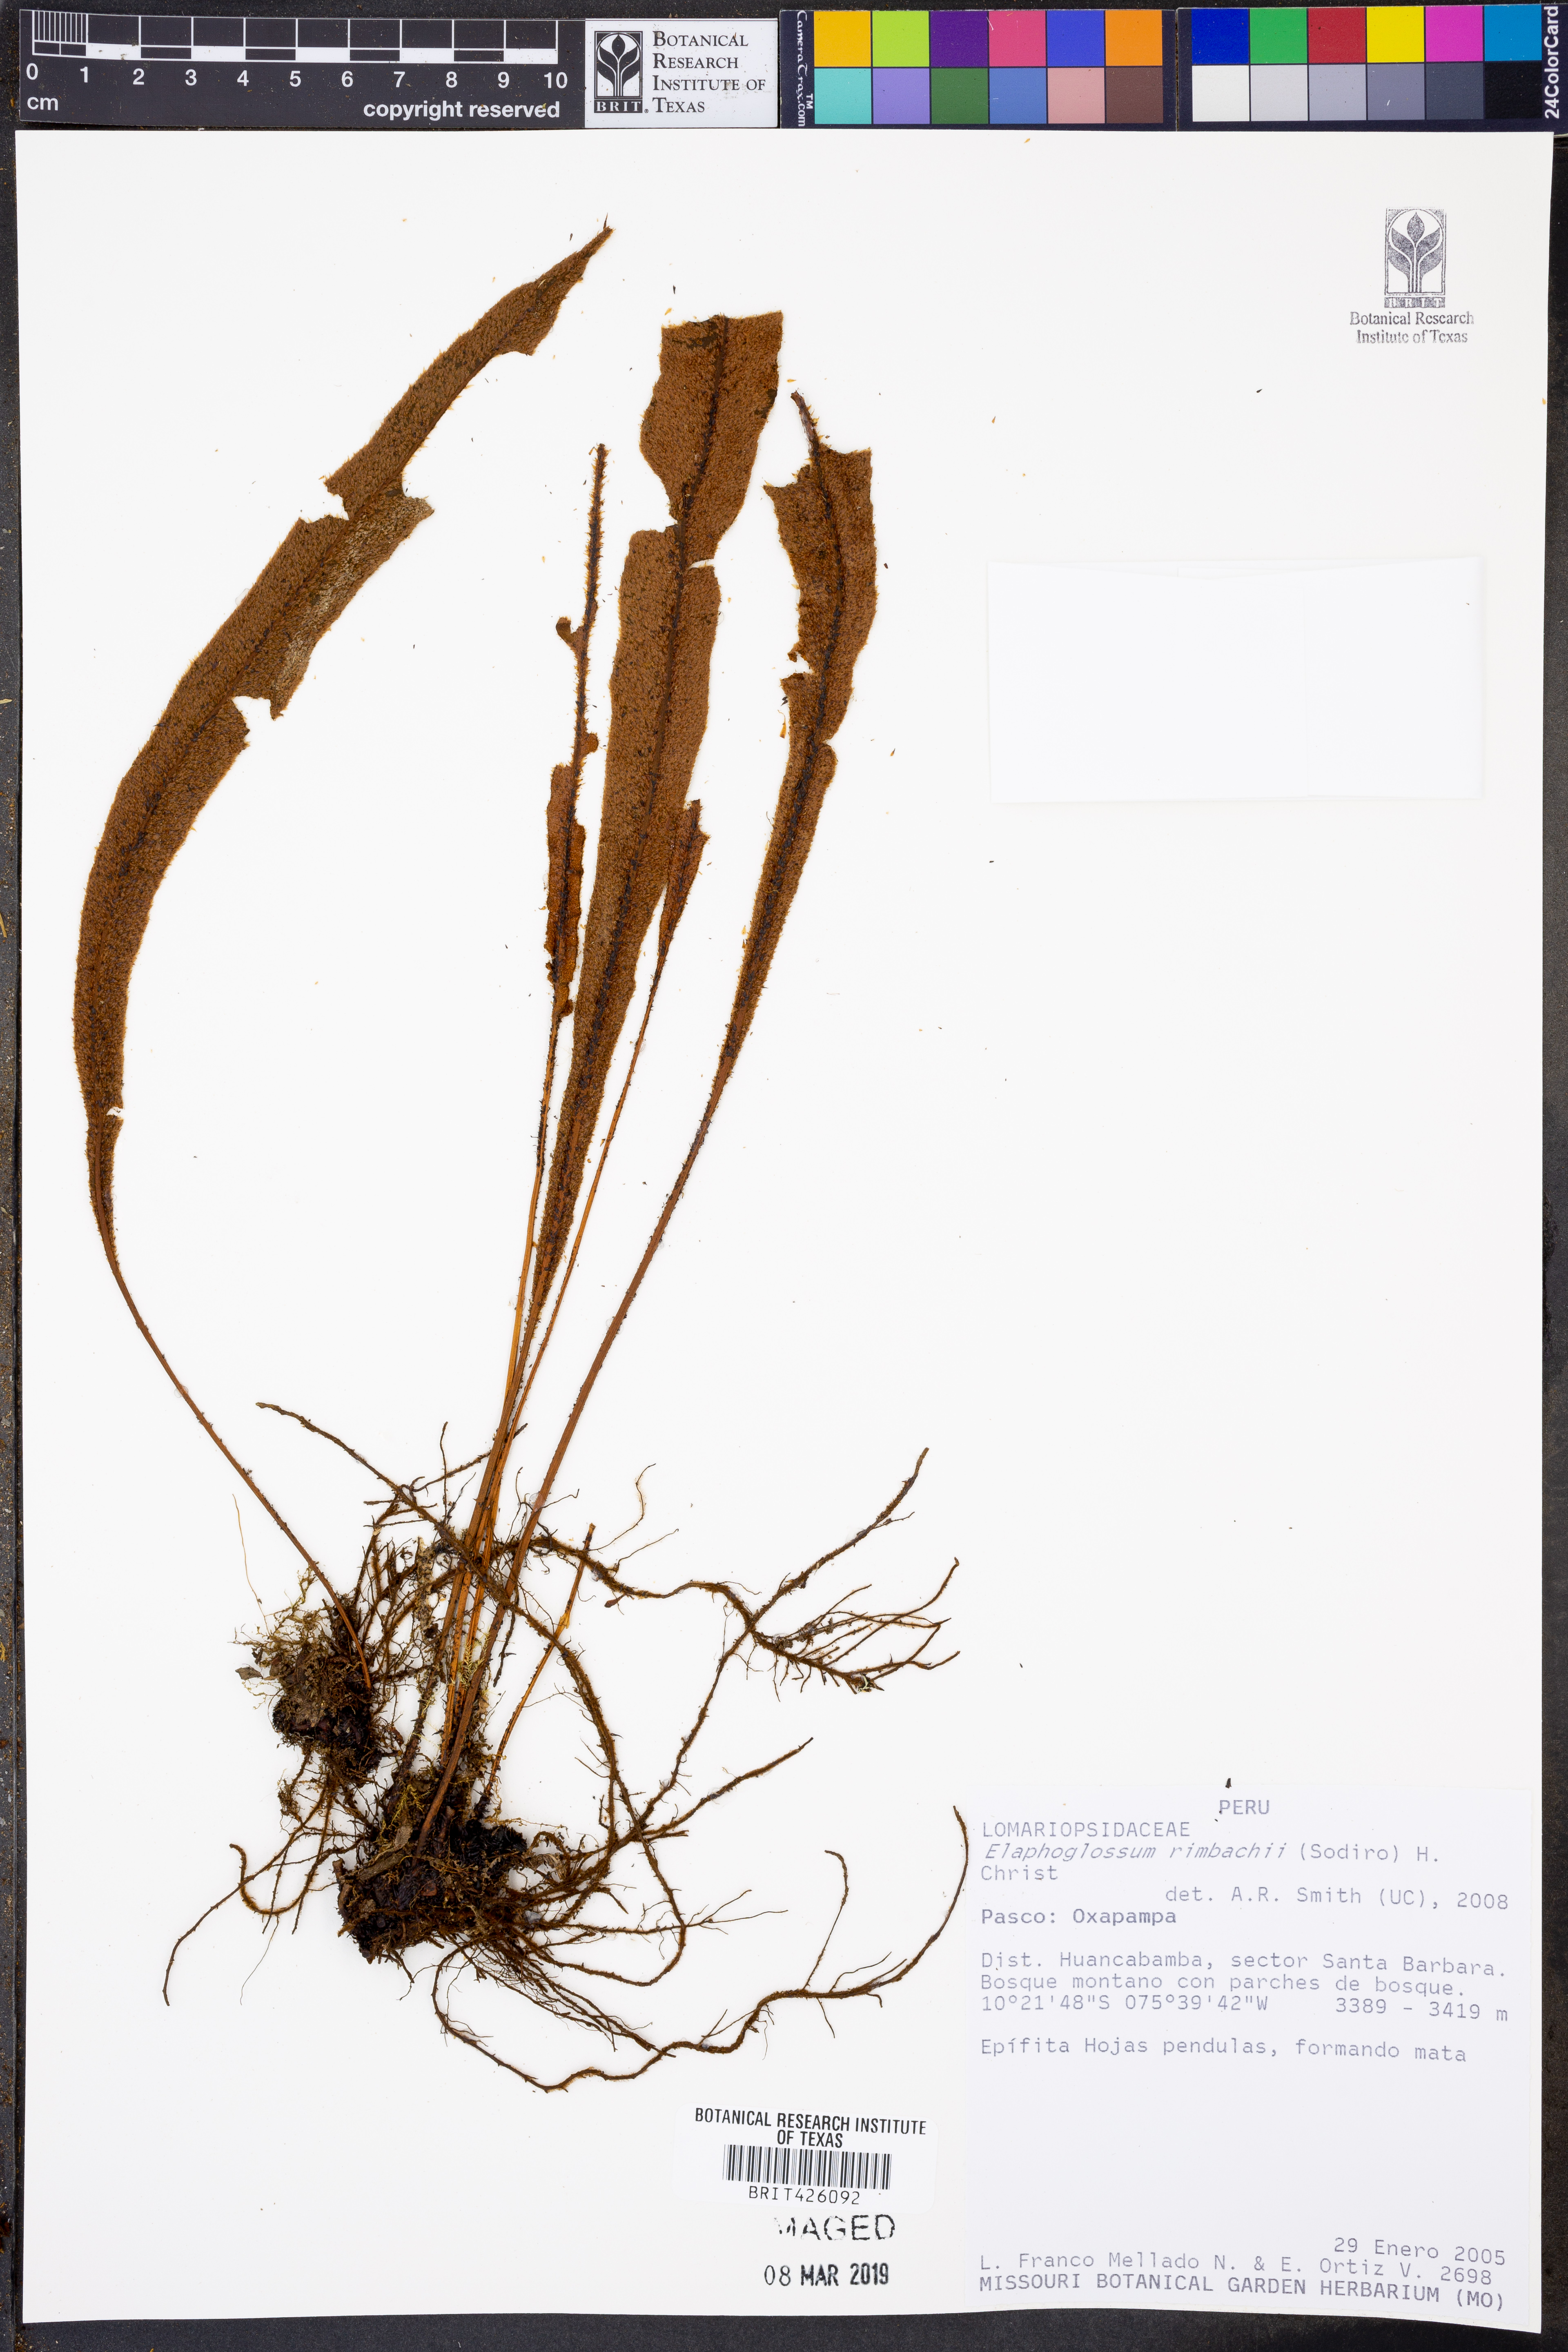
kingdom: Plantae
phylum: Tracheophyta
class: Polypodiopsida
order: Polypodiales
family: Dryopteridaceae
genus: Elaphoglossum
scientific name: Elaphoglossum rimbachii
